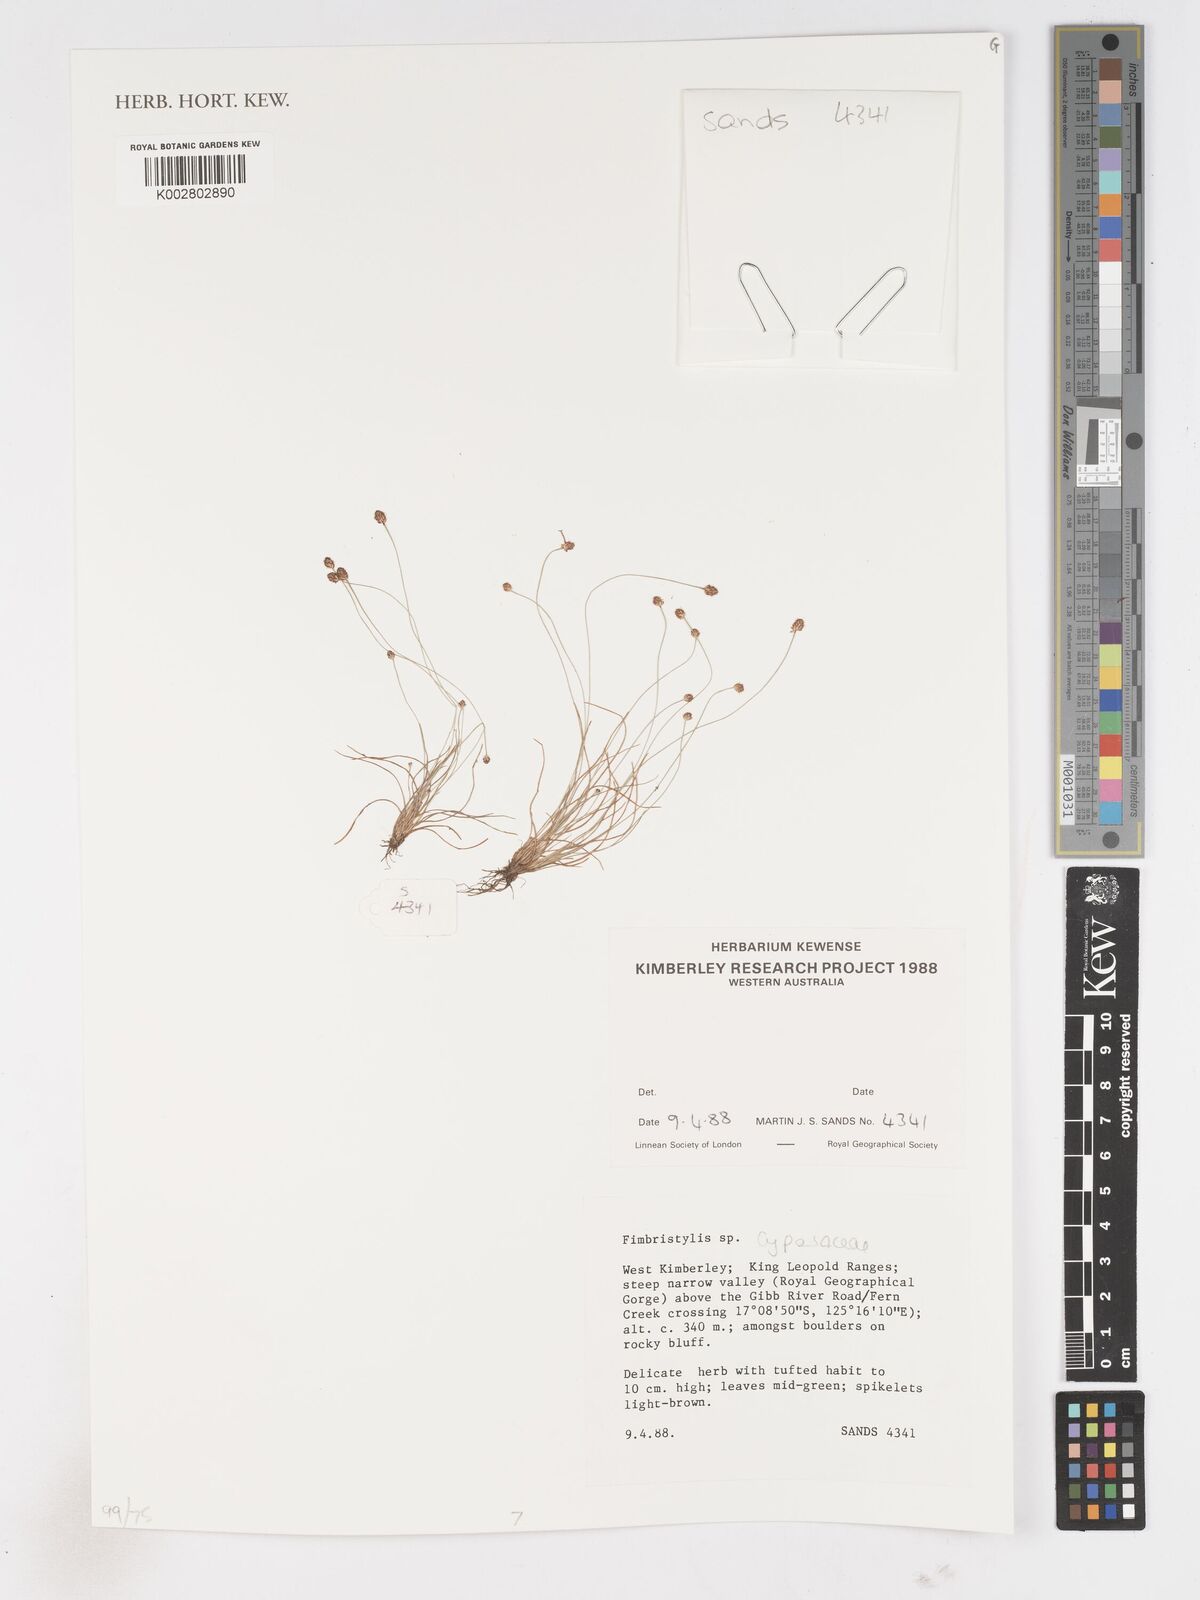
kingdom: Plantae
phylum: Tracheophyta
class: Liliopsida
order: Poales
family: Cyperaceae
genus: Fimbristylis
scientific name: Fimbristylis
